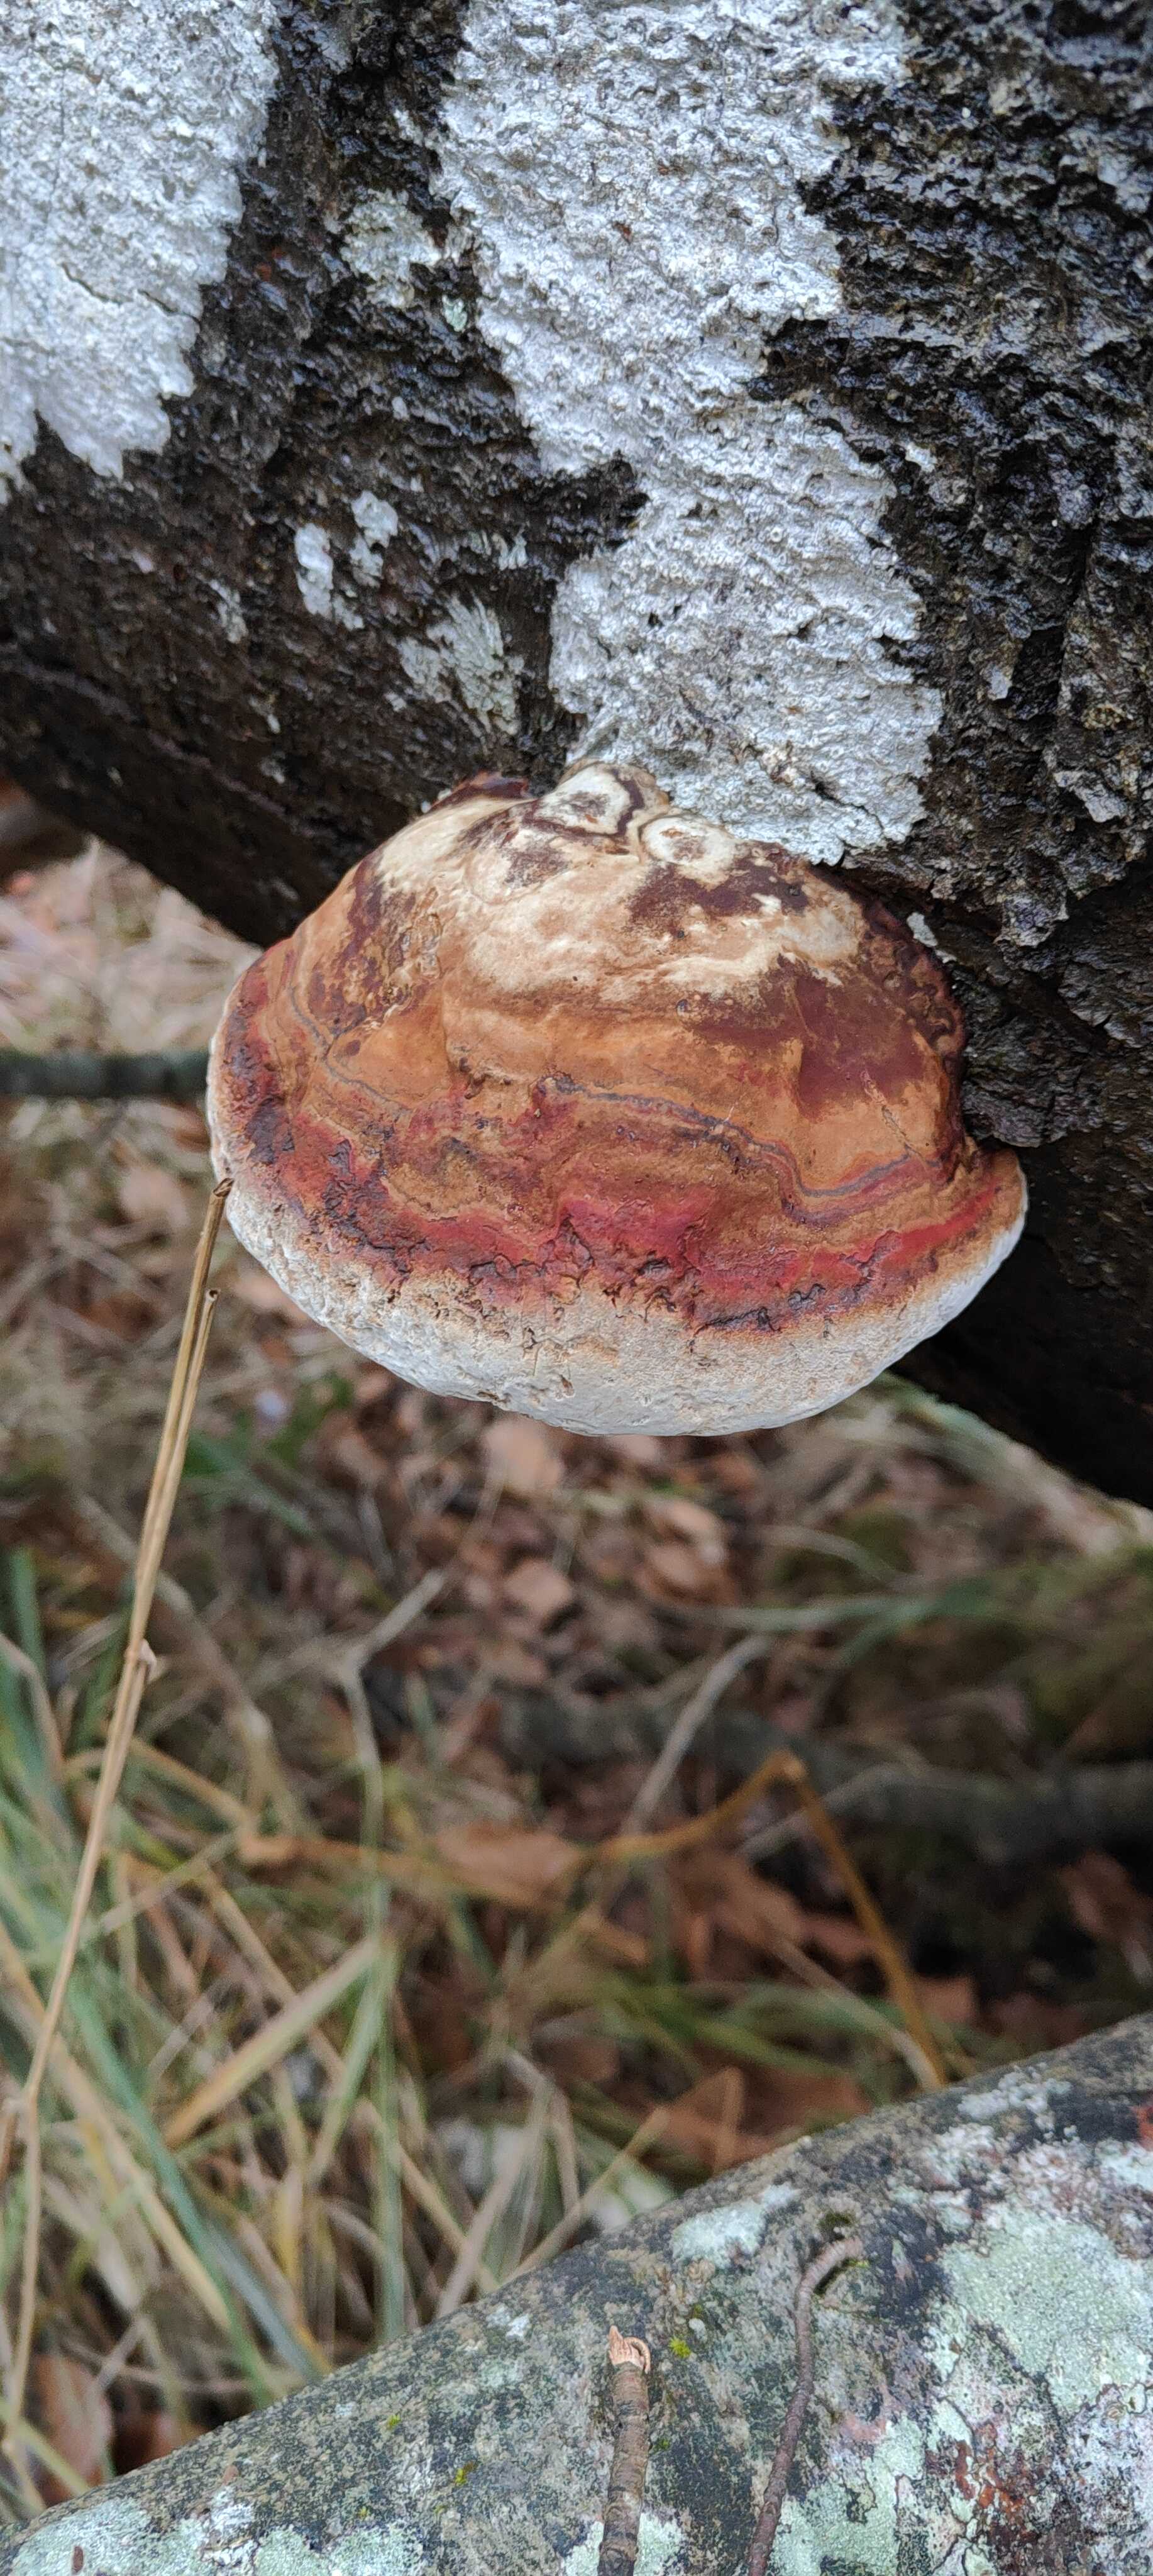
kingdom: Fungi
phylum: Basidiomycota
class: Agaricomycetes
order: Polyporales
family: Fomitopsidaceae
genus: Fomitopsis
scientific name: Fomitopsis pinicola
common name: randbæltet hovporesvamp
